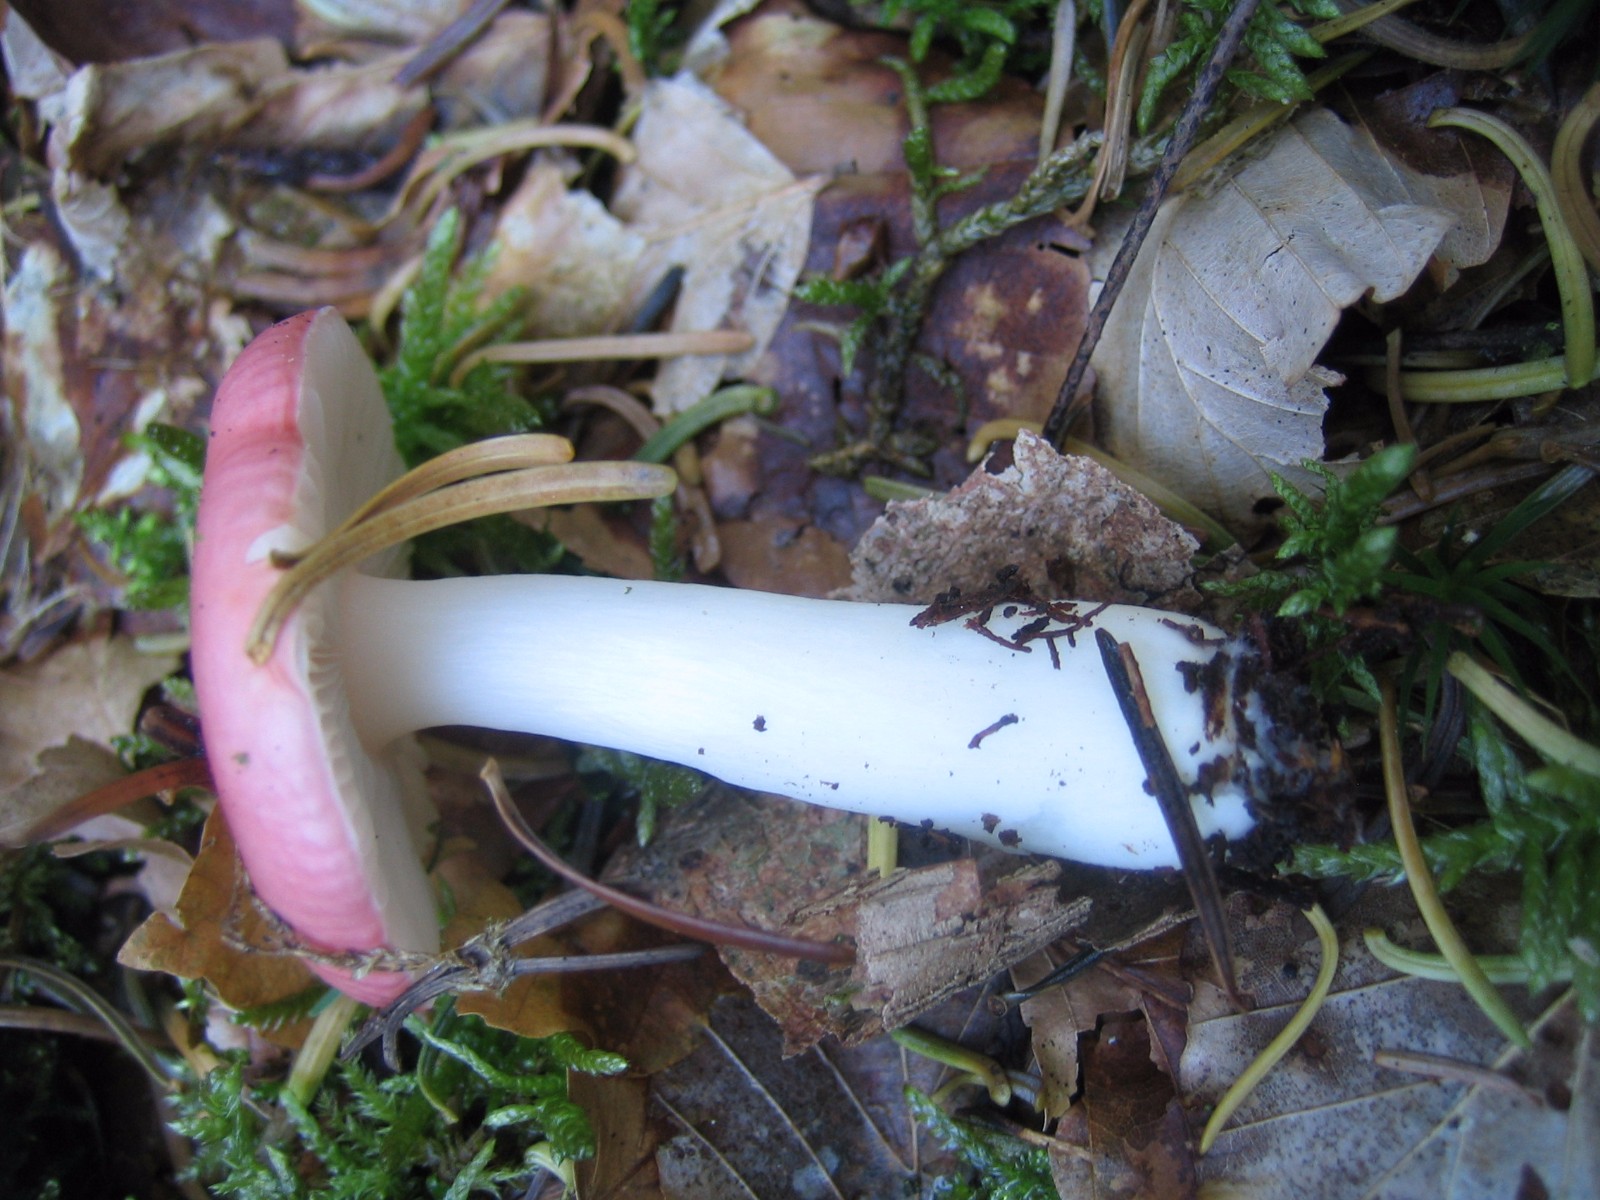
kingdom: Fungi
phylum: Basidiomycota
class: Agaricomycetes
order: Russulales
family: Russulaceae
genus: Russula
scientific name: Russula
